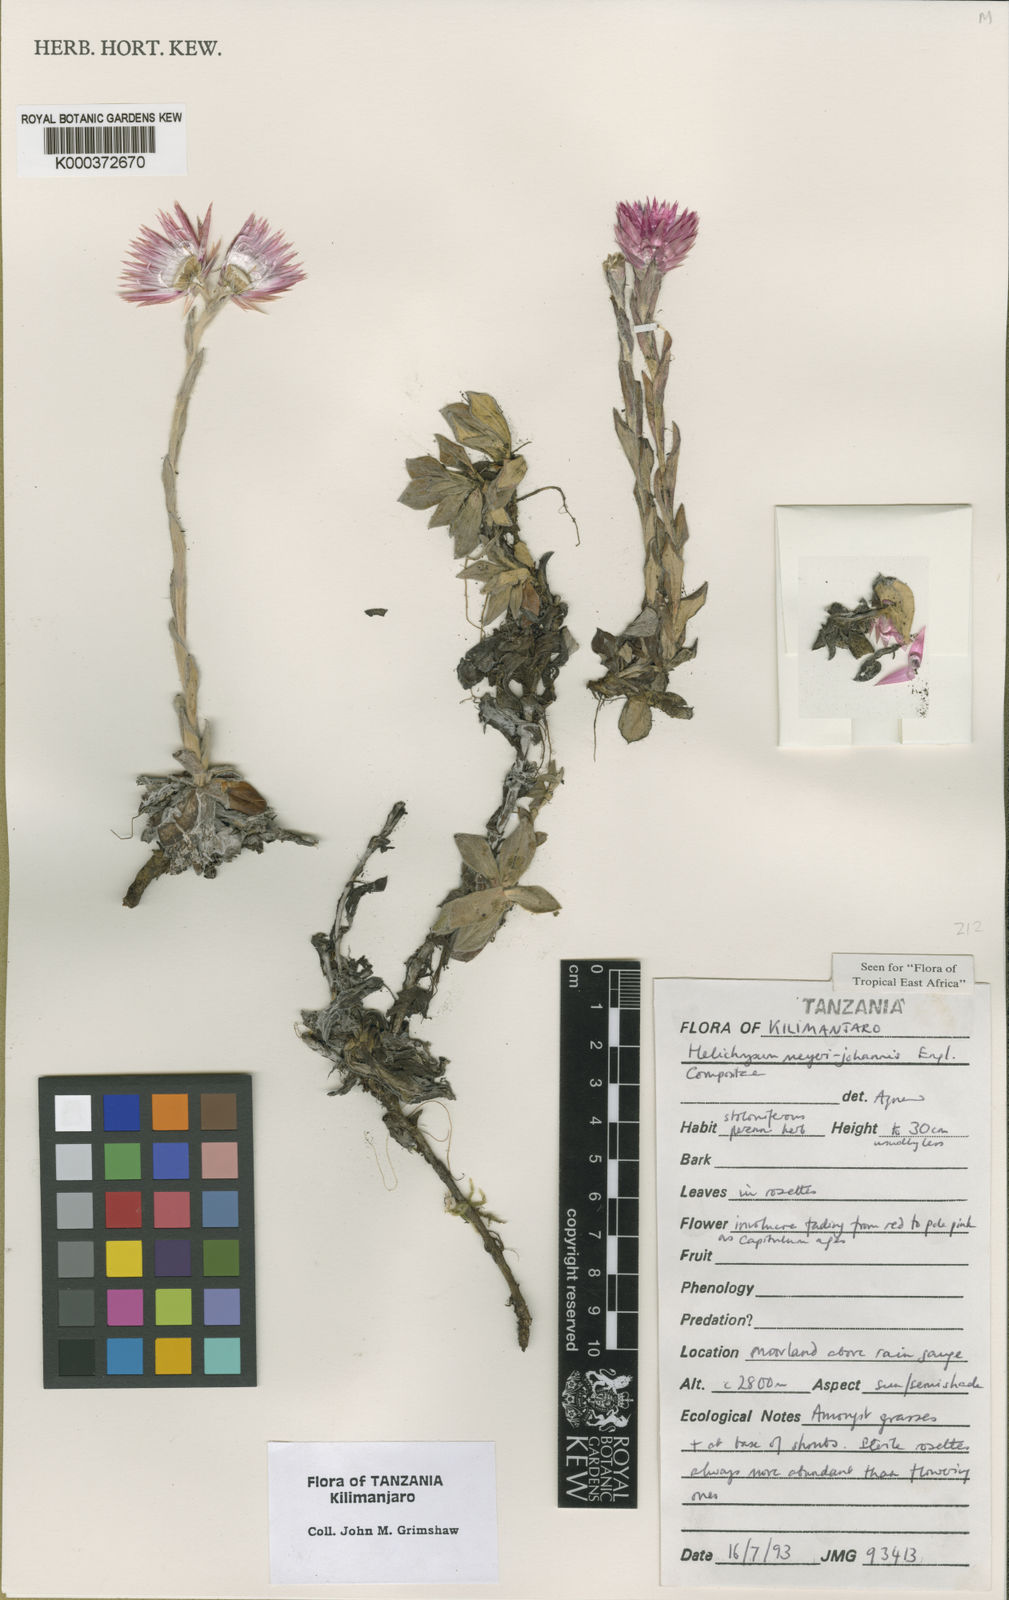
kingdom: Plantae
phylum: Tracheophyta
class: Magnoliopsida
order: Asterales
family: Asteraceae
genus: Helichrysum
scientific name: Helichrysum meyeri-johannis
